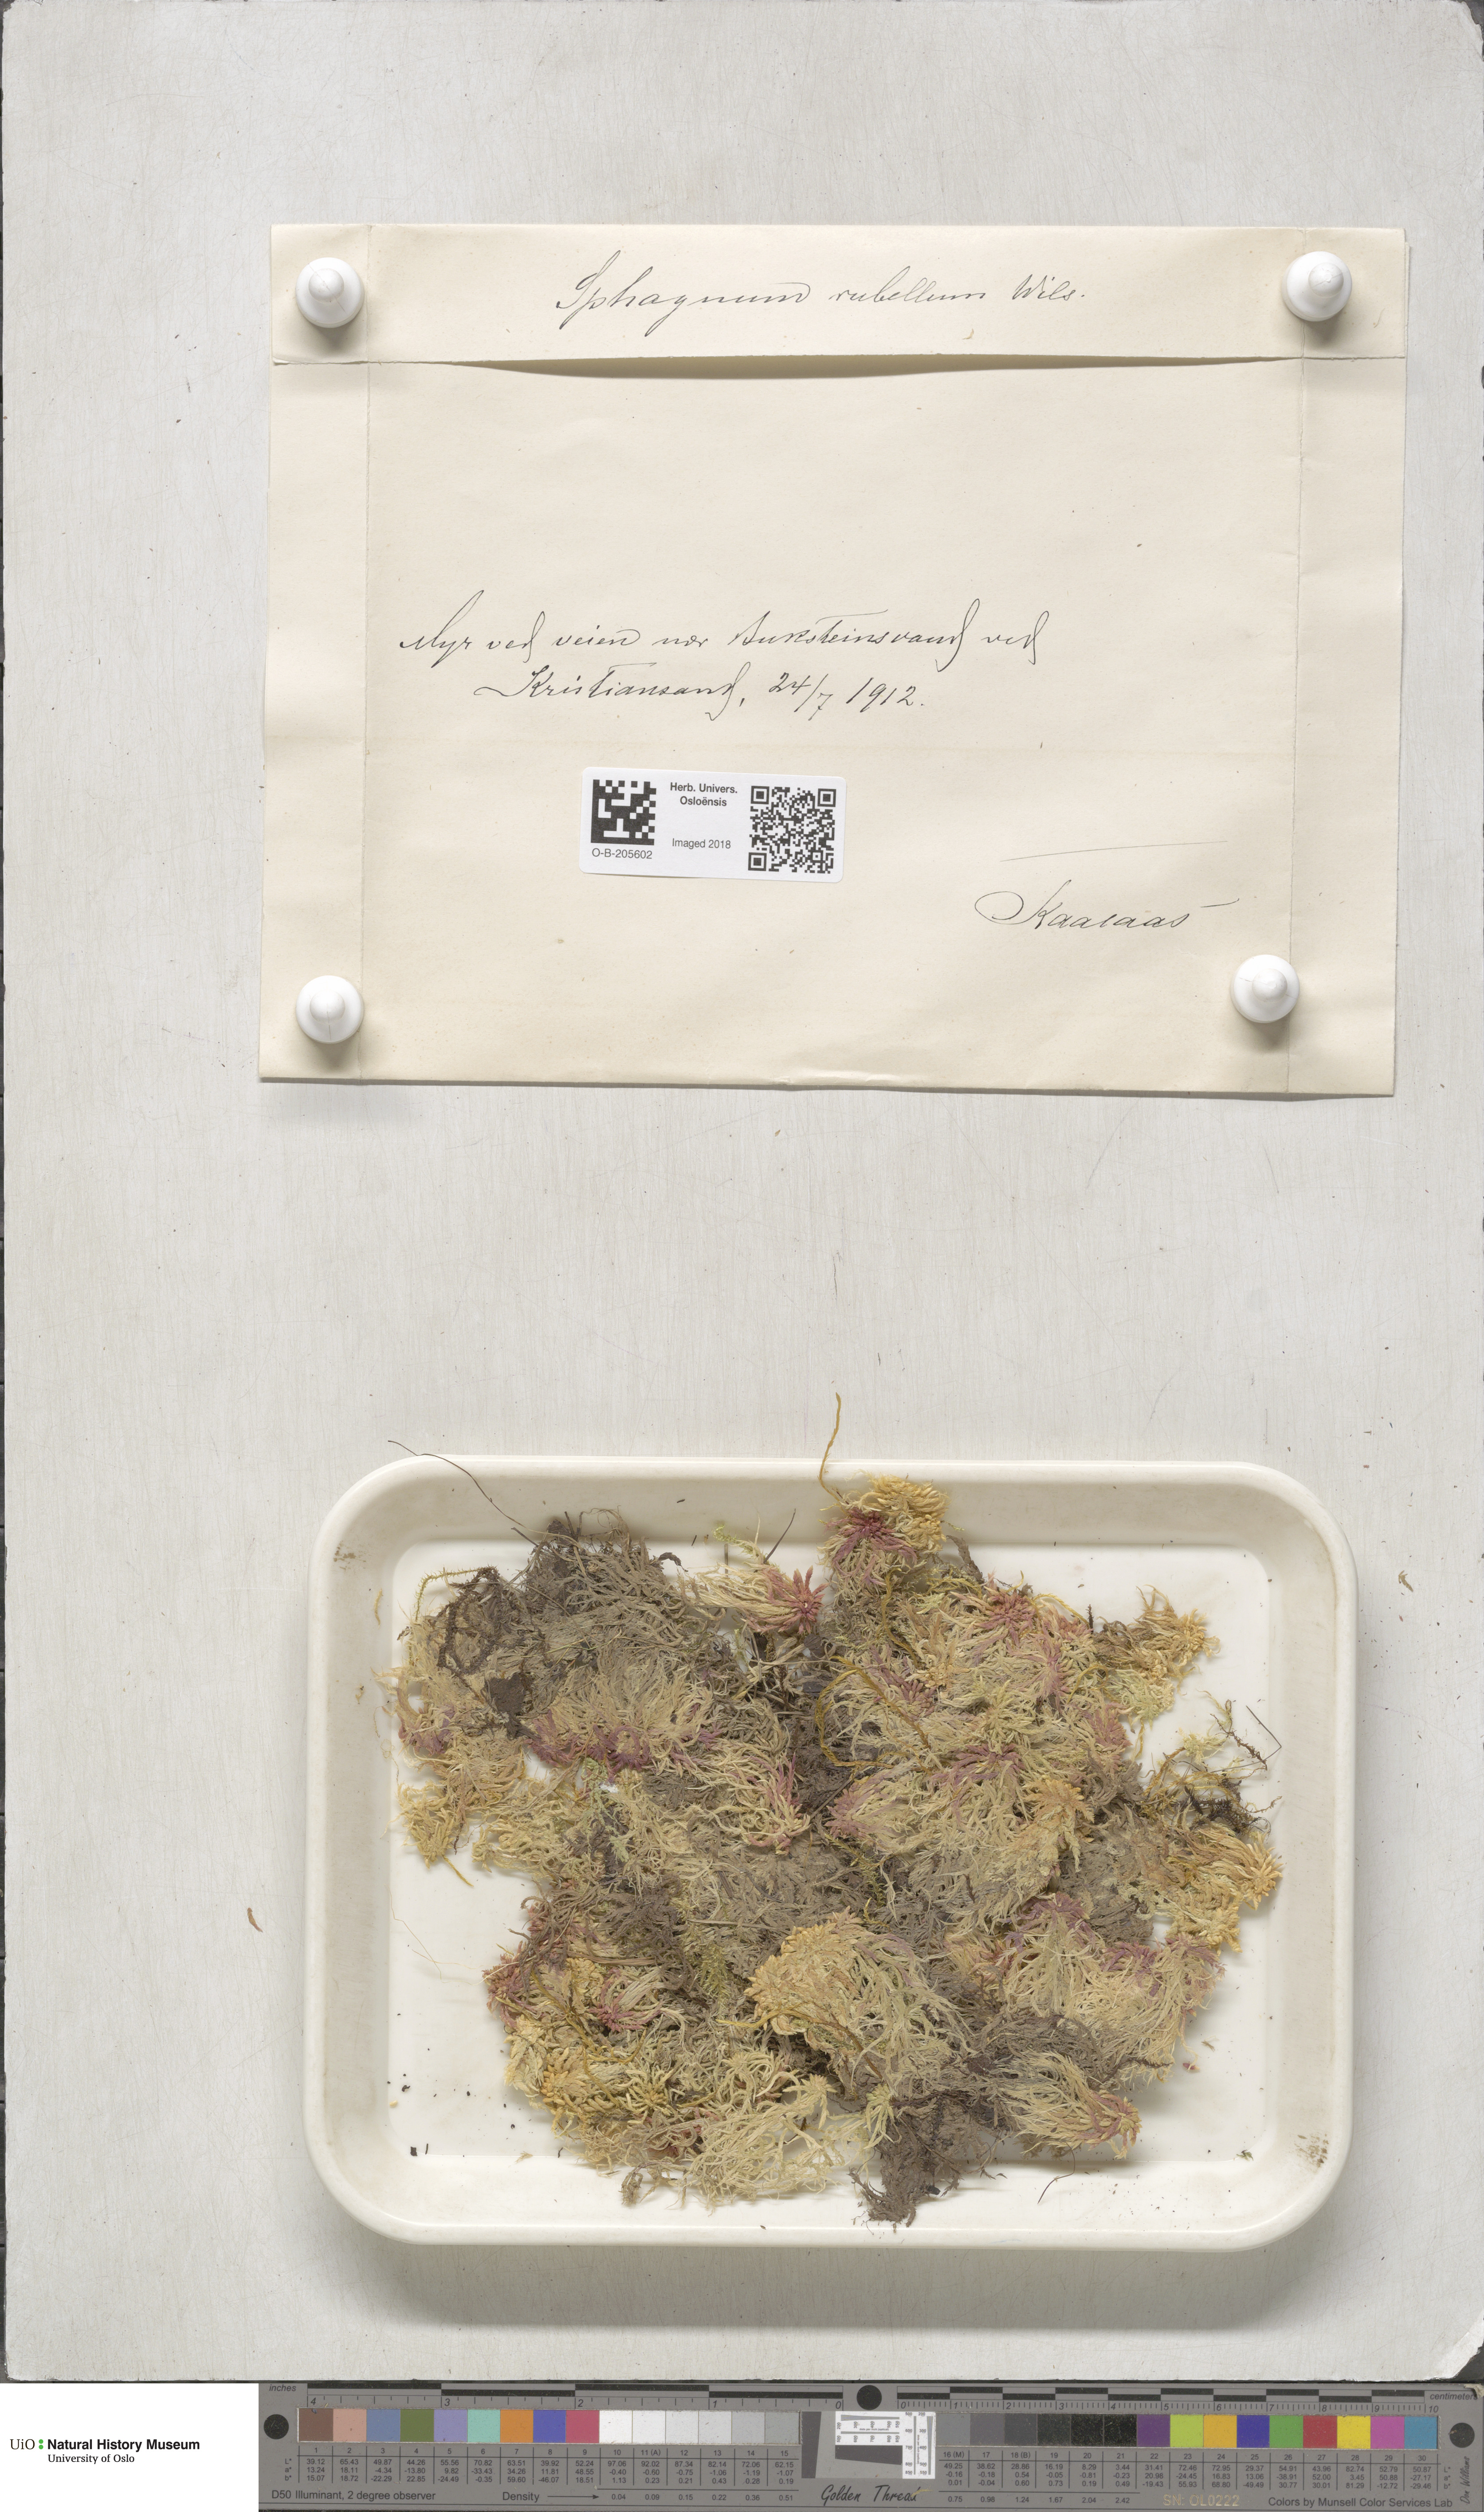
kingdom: Plantae
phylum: Bryophyta
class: Sphagnopsida
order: Sphagnales
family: Sphagnaceae
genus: Sphagnum
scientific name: Sphagnum rubellum
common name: Red peat moss
